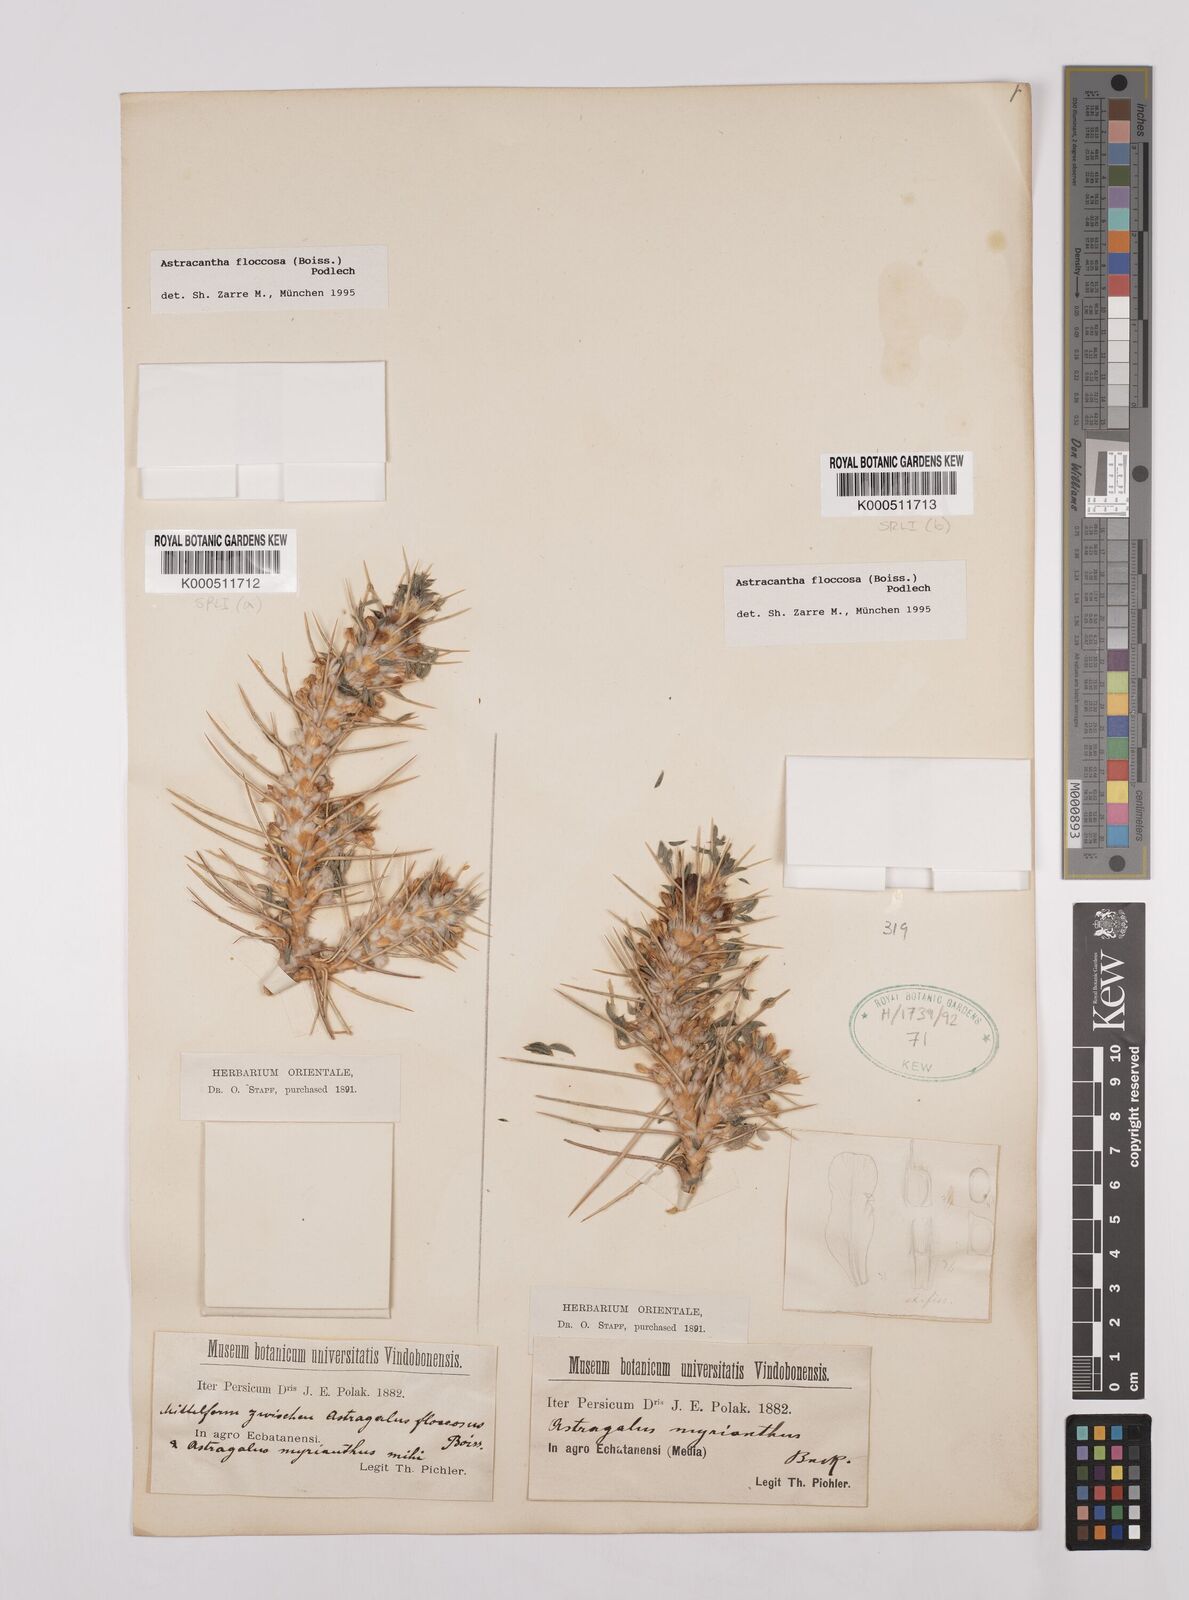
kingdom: Plantae
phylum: Tracheophyta
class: Magnoliopsida
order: Fabales
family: Fabaceae
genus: Astragalus
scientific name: Astragalus floccosus
